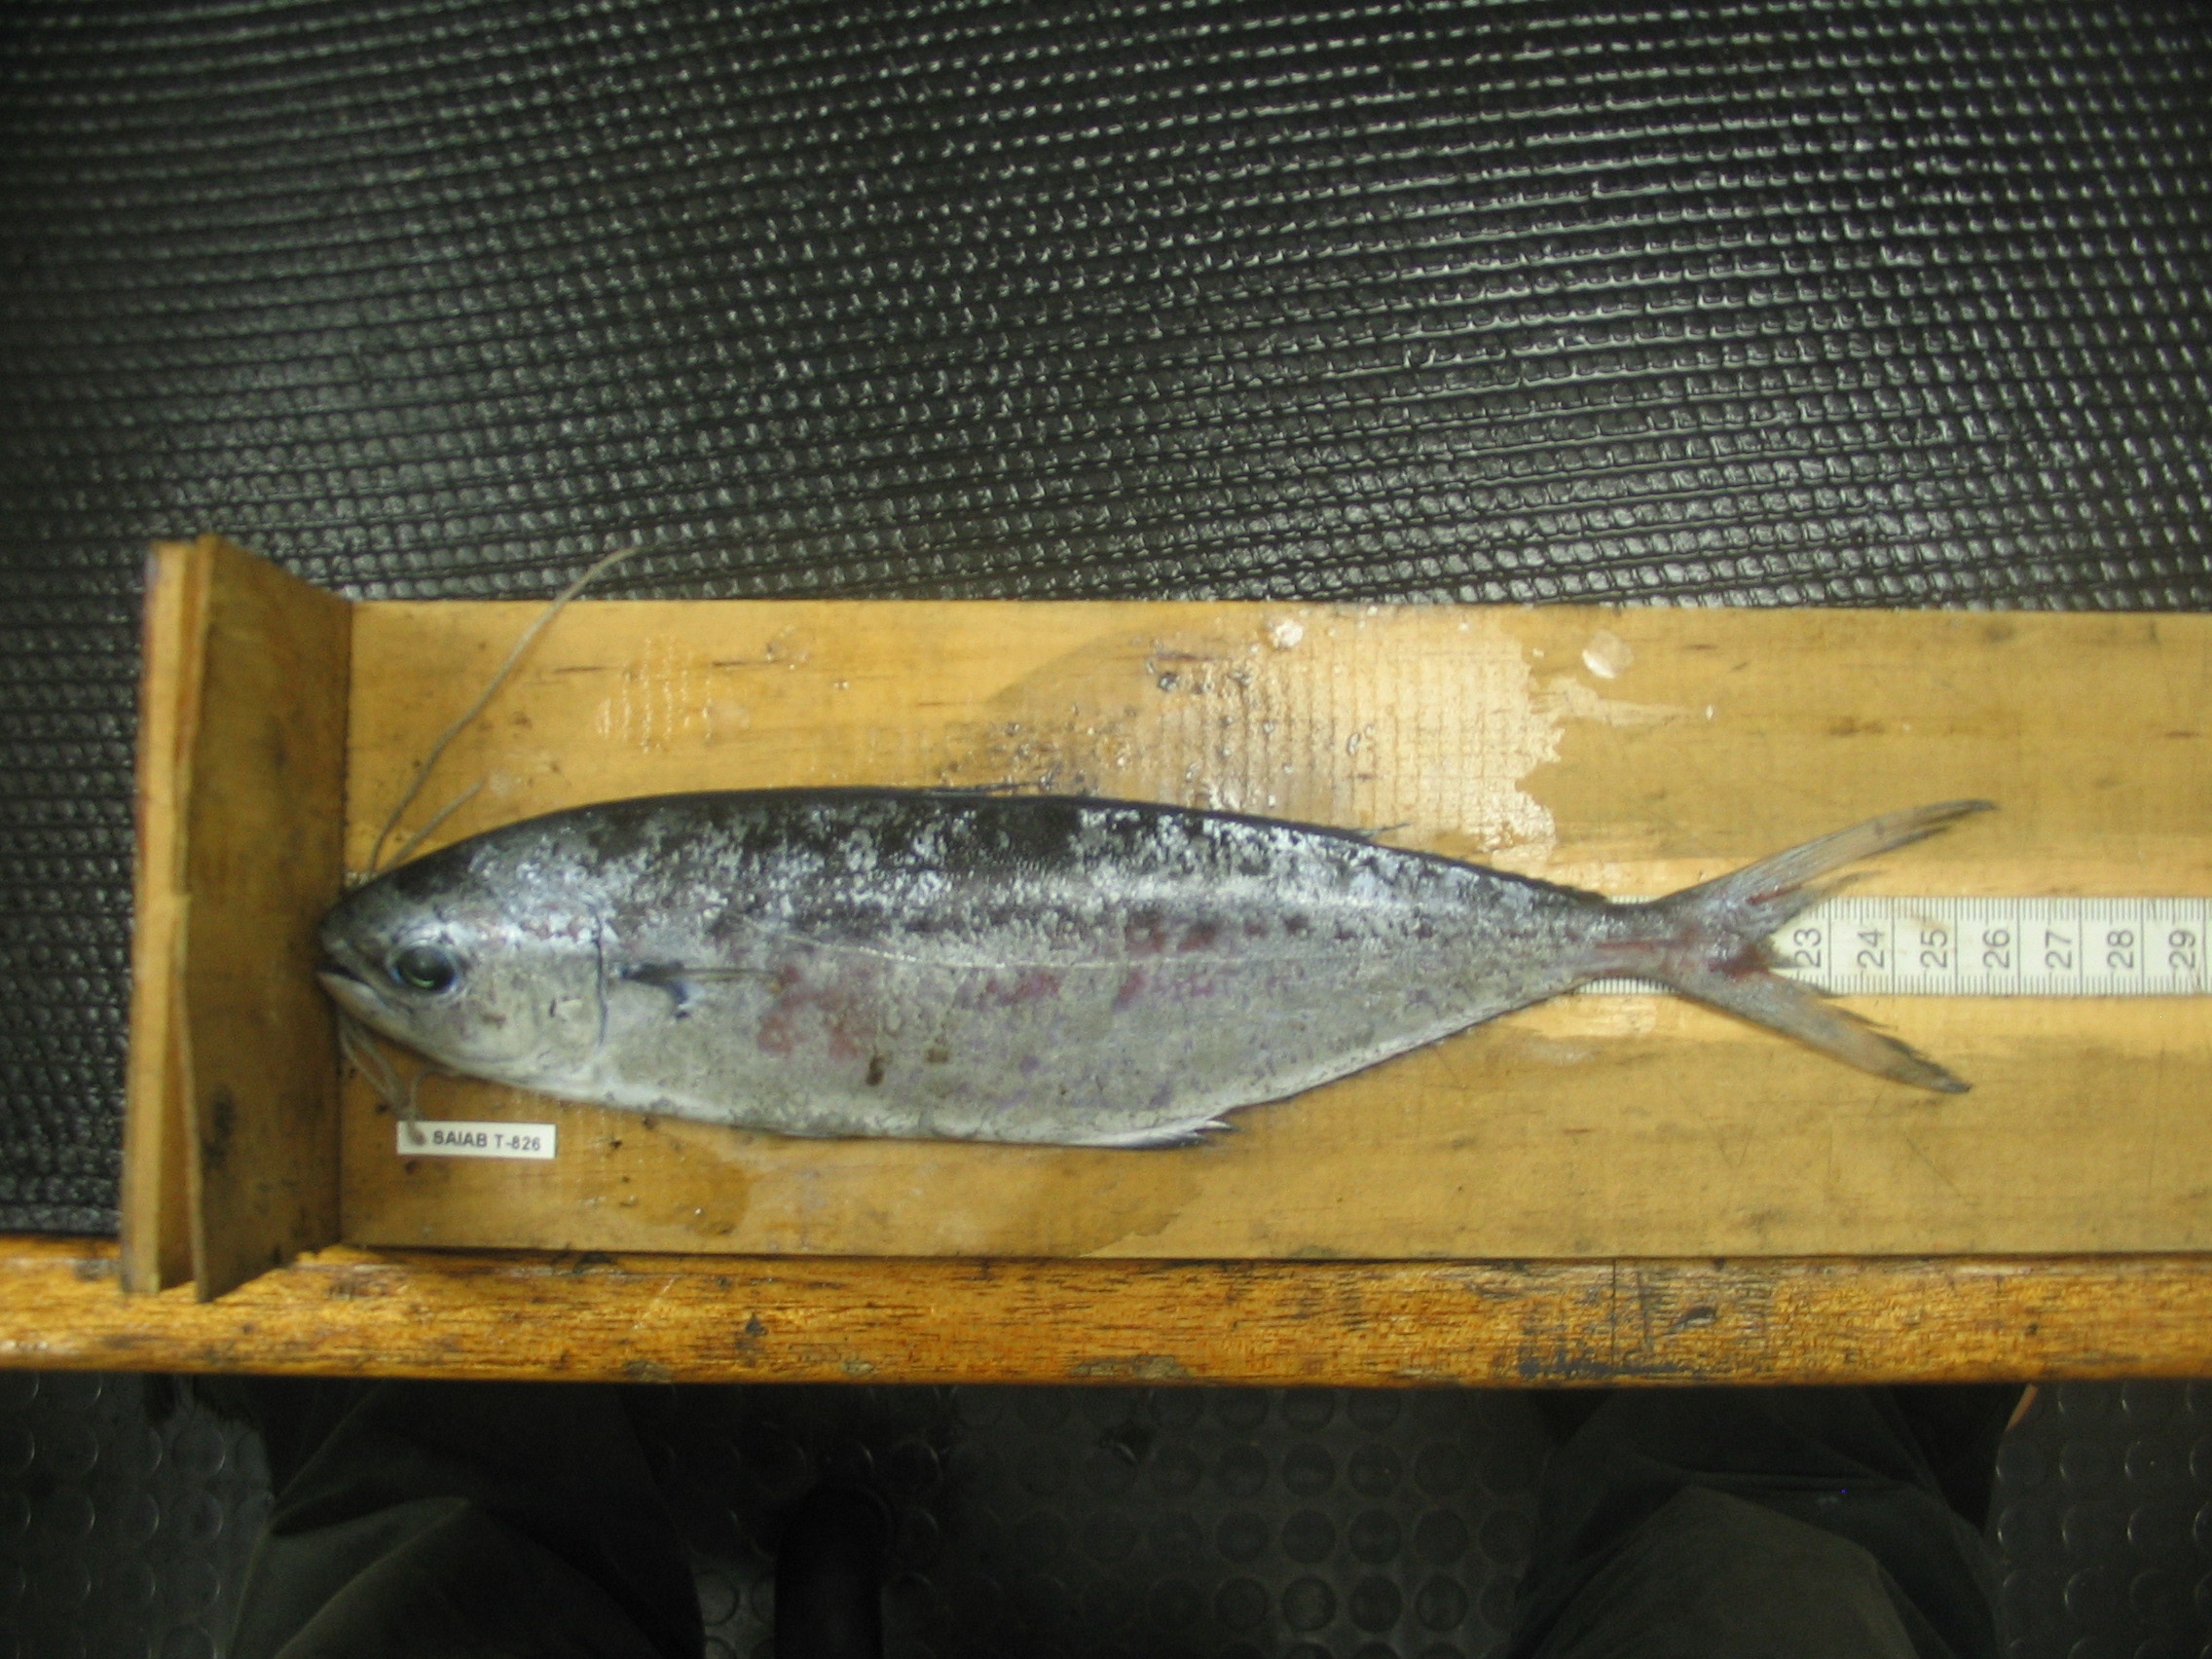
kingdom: Animalia
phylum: Chordata
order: Perciformes
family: Coryphaenidae
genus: Coryphaena
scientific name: Coryphaena equiselis
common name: Pompano dolphinfish
